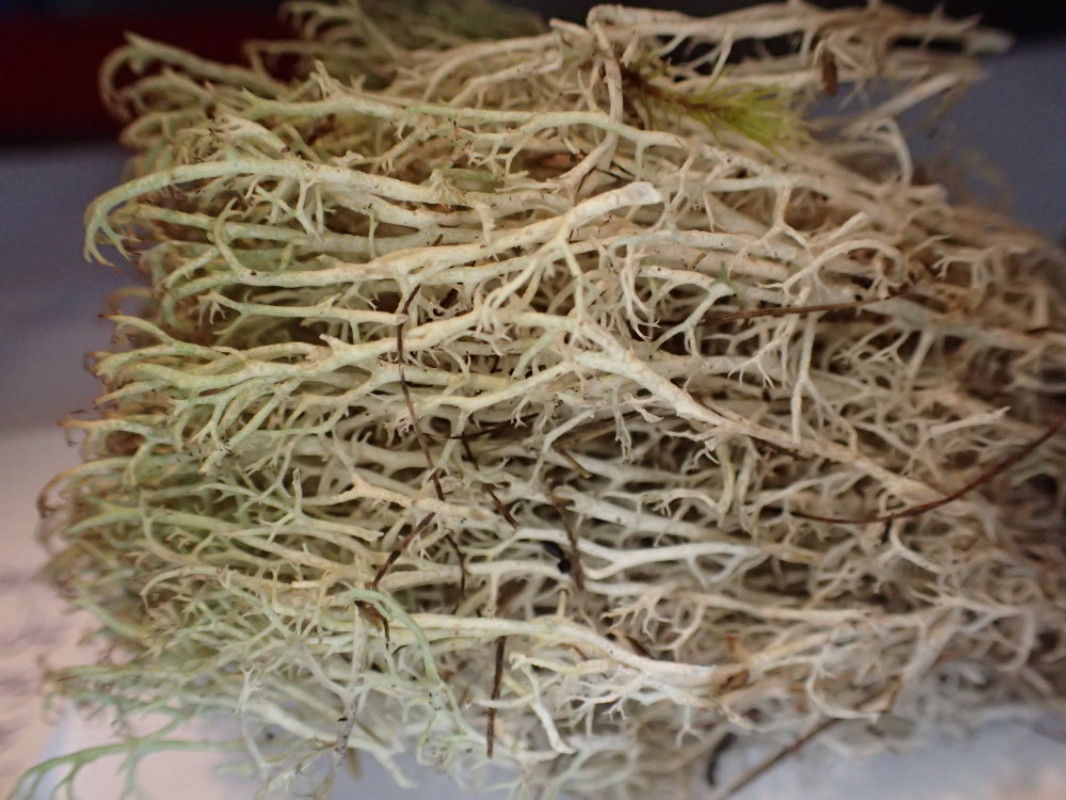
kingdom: Fungi
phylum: Ascomycota
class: Lecanoromycetes
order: Lecanorales
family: Cladoniaceae
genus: Cladonia
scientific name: Cladonia ciliata
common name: spinkel rensdyrlav
